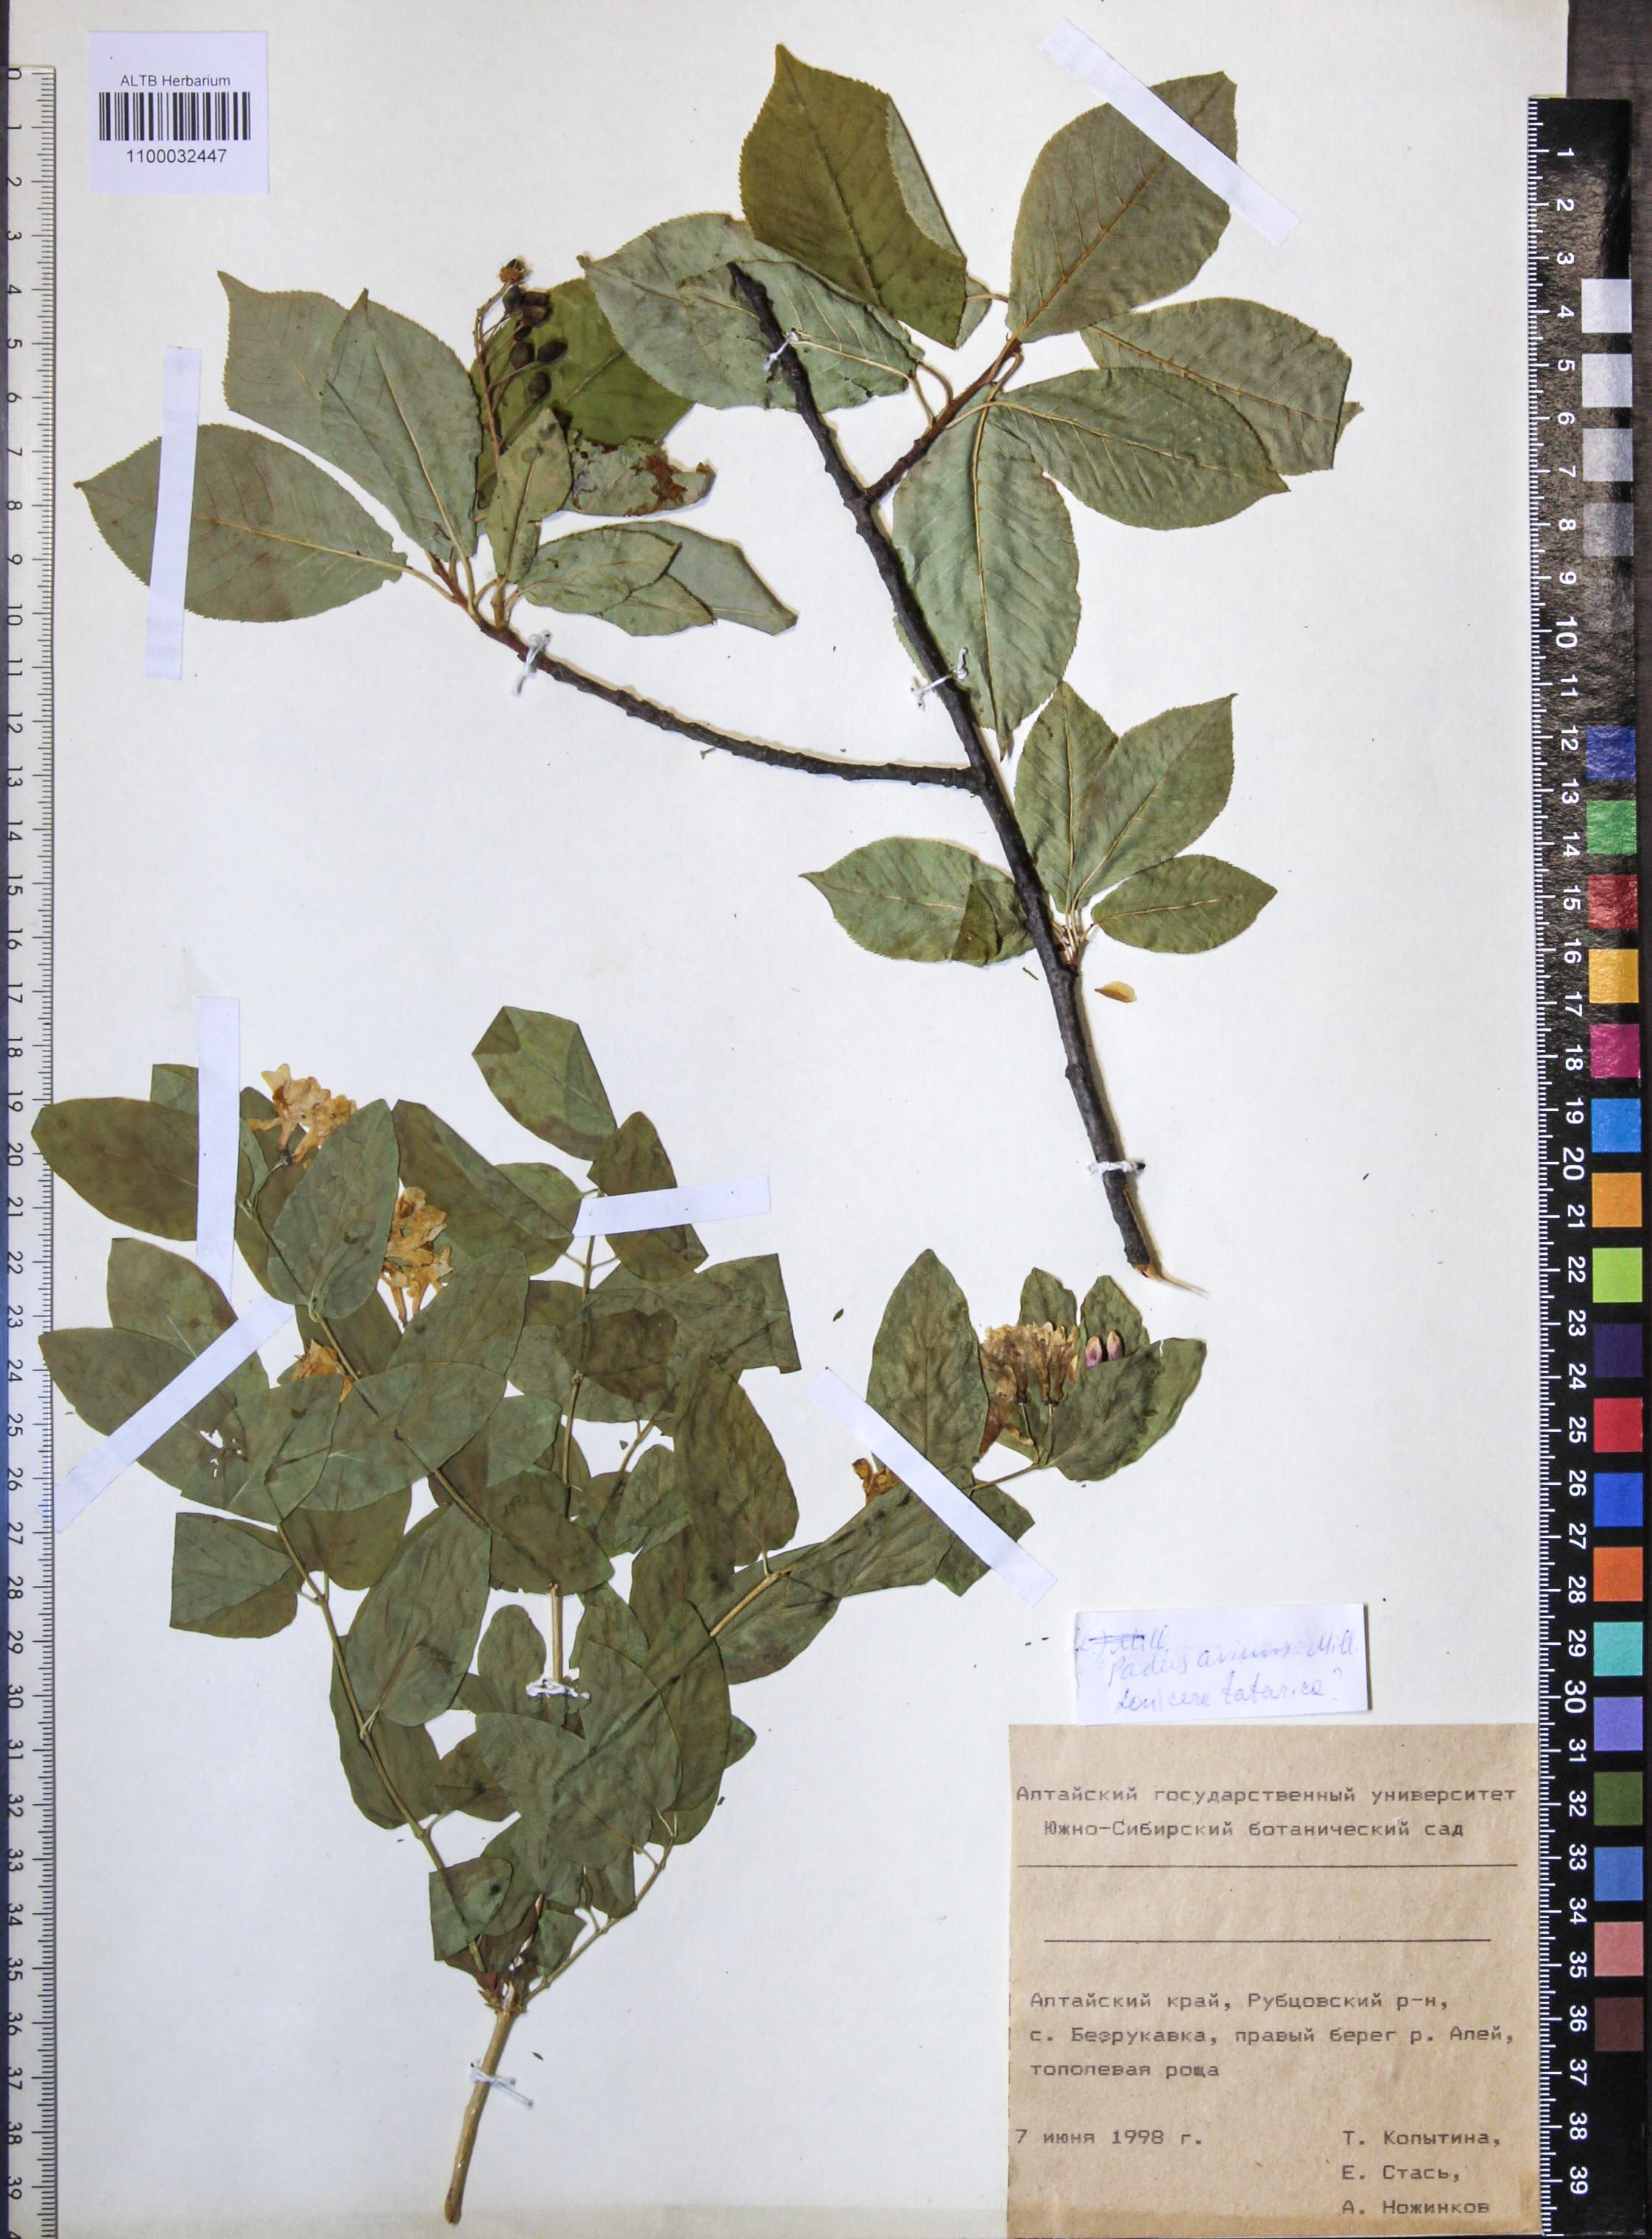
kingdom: Plantae
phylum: Tracheophyta
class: Magnoliopsida
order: Rosales
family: Rosaceae
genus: Prunus
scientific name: Prunus padus
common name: Bird cherry
